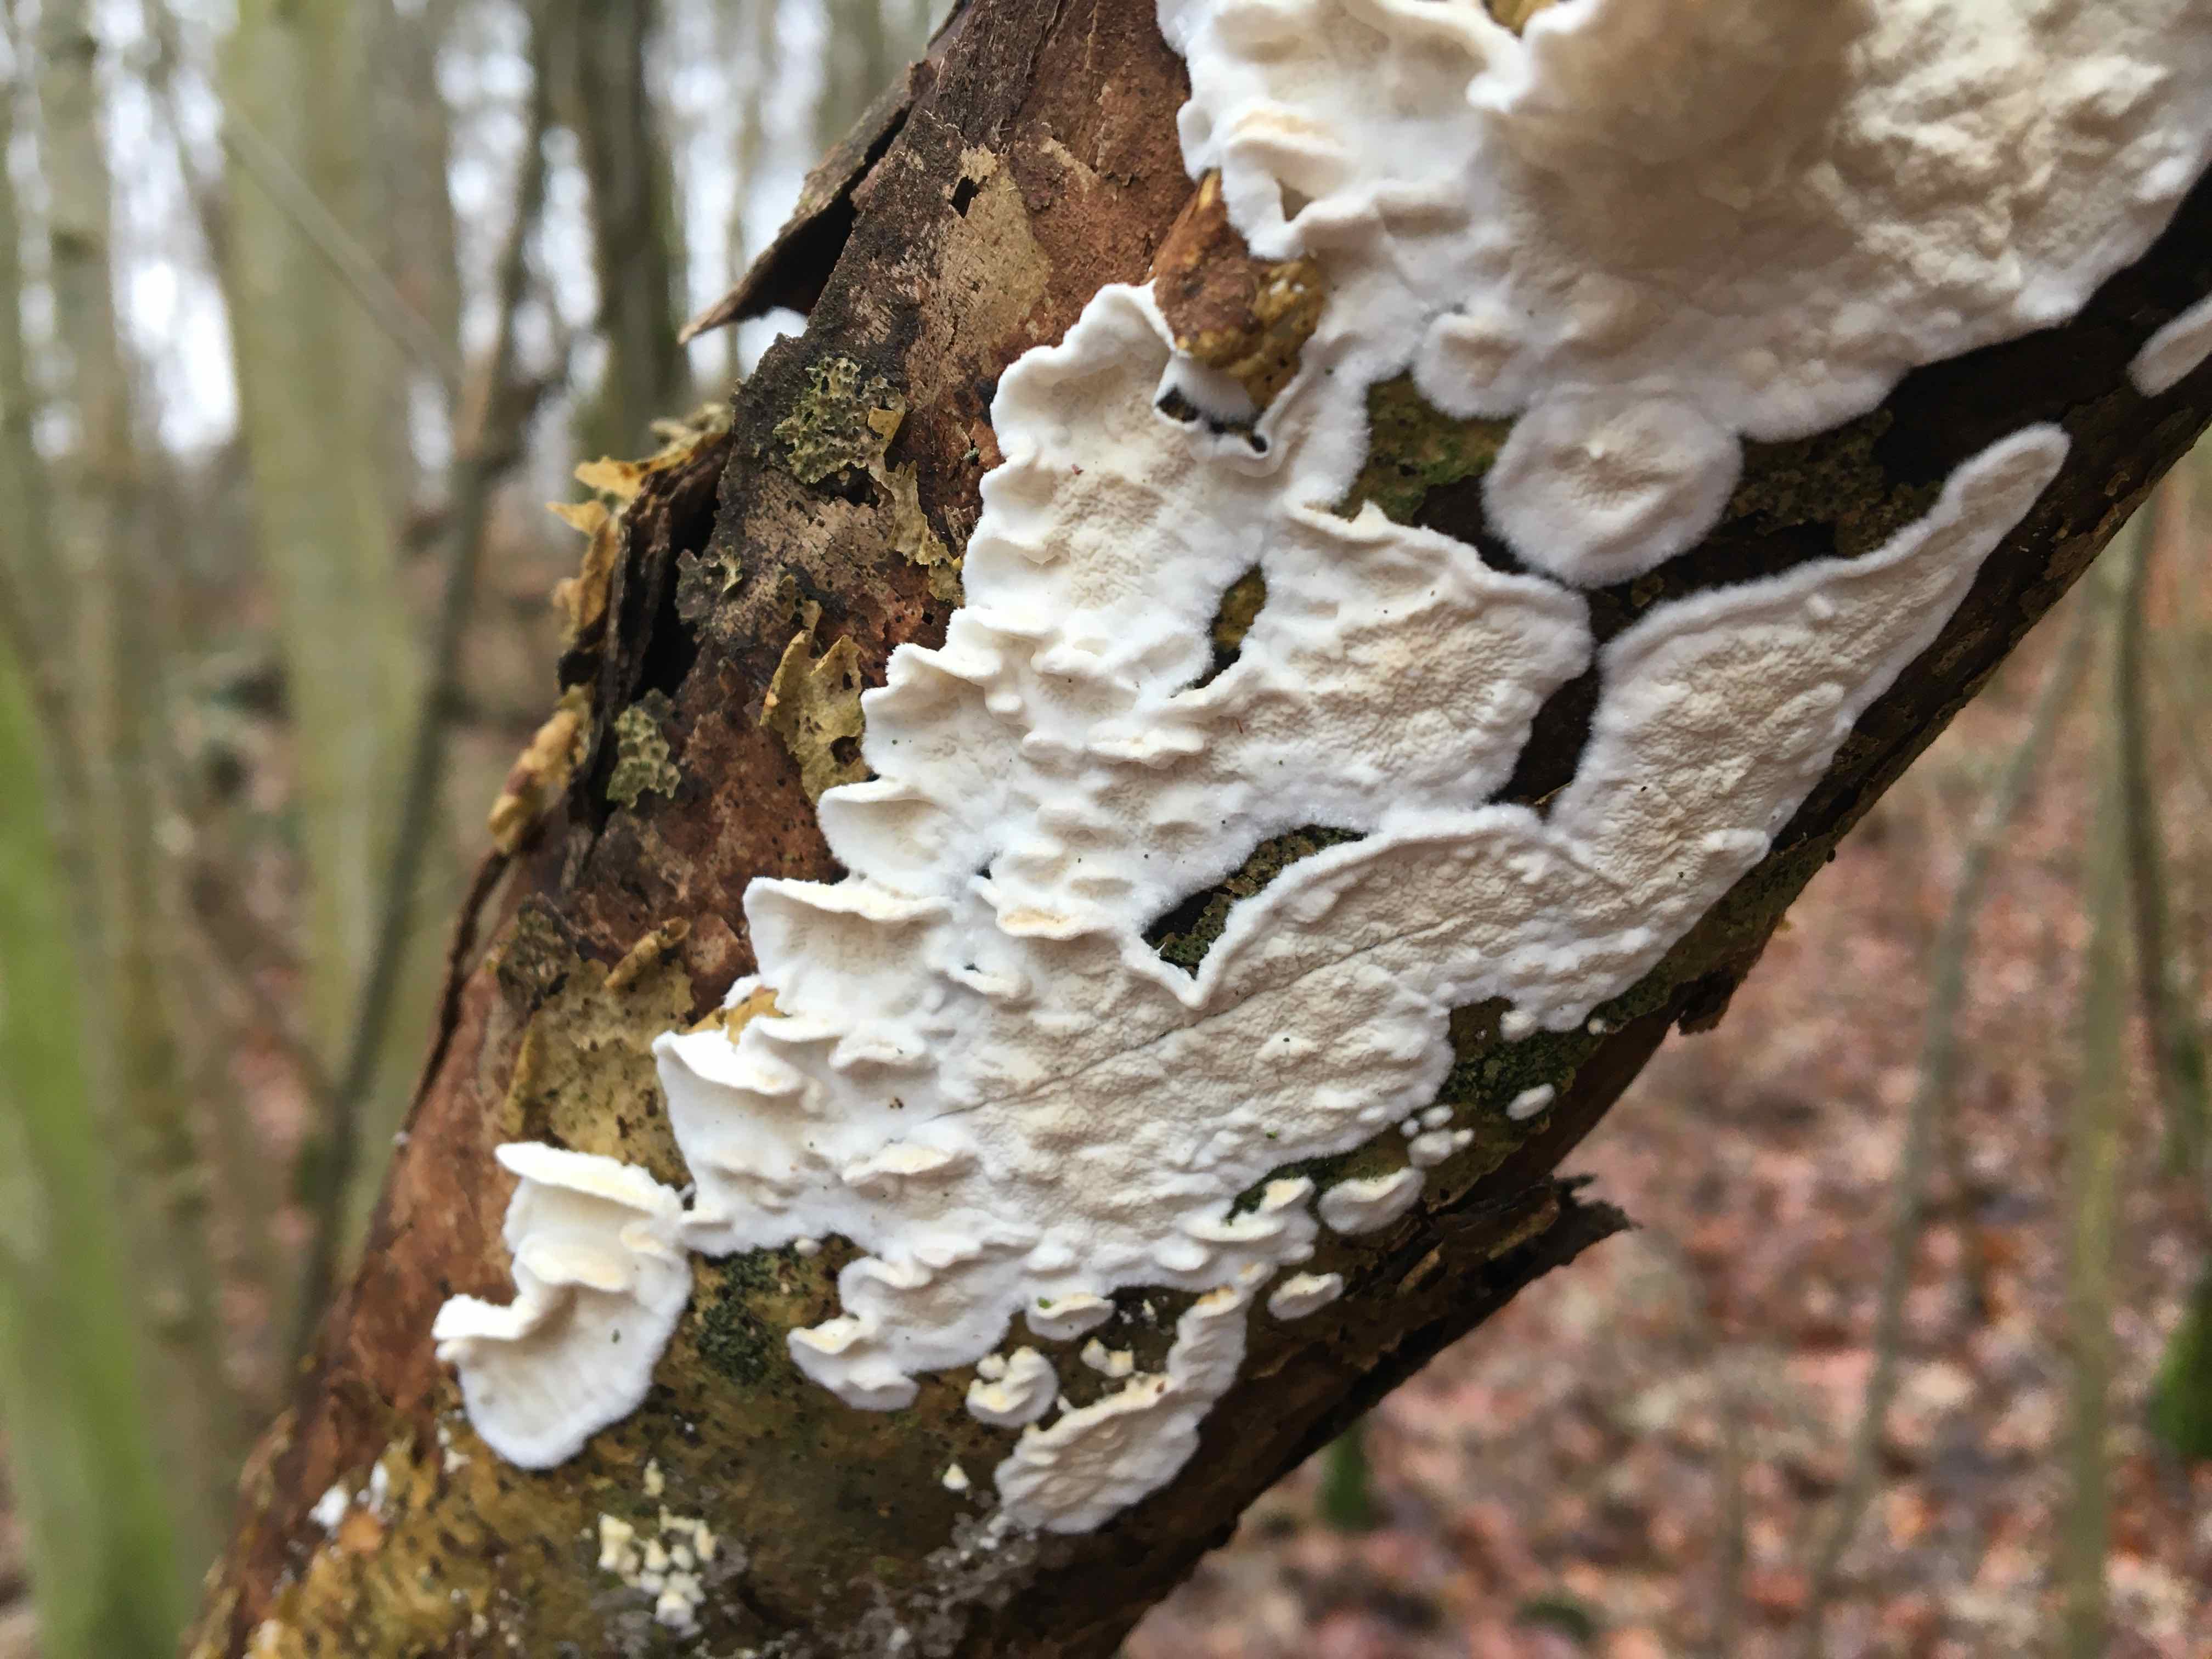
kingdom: Fungi
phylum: Basidiomycota
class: Agaricomycetes
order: Polyporales
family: Irpicaceae
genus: Byssomerulius
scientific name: Byssomerulius corium
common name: læder-åresvamp
